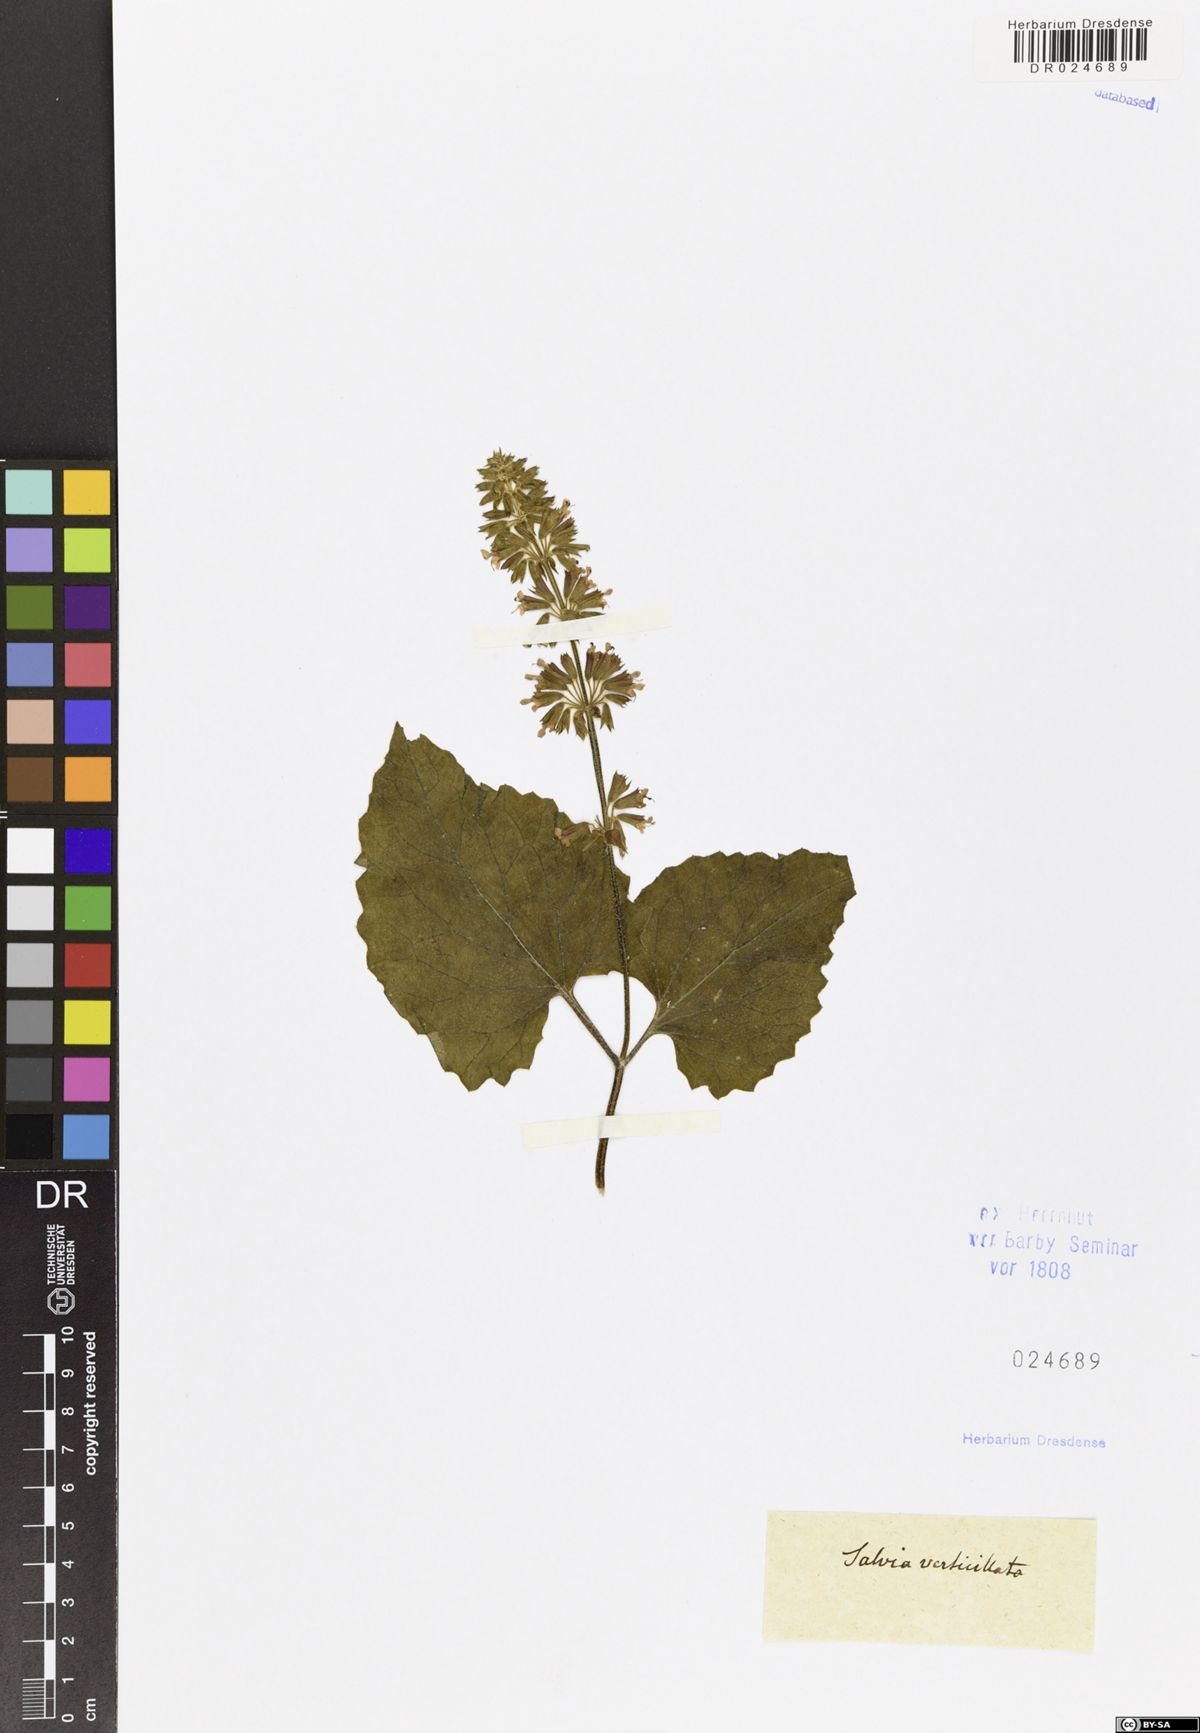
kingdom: Plantae
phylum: Tracheophyta
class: Magnoliopsida
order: Lamiales
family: Lamiaceae
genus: Salvia
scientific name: Salvia verticillata
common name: Whorled clary
